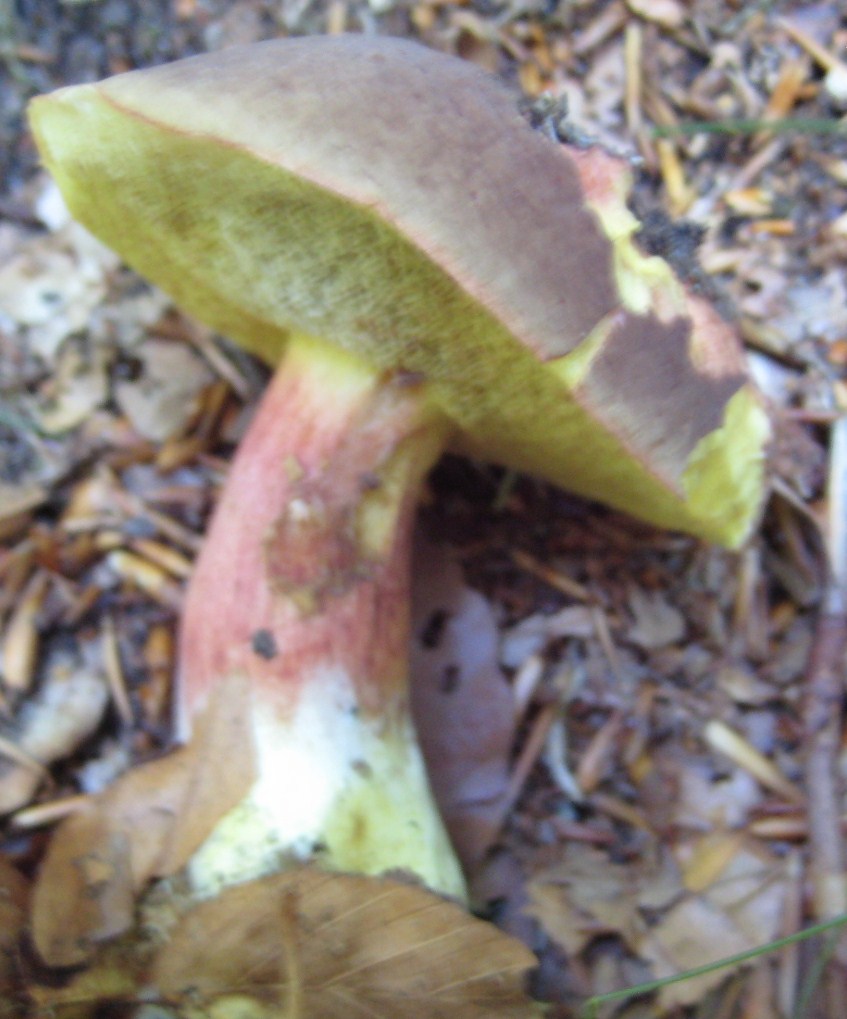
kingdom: Fungi
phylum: Basidiomycota
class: Agaricomycetes
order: Boletales
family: Boletaceae
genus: Xerocomellus
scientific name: Xerocomellus pruinatus
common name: dugget rørhat
